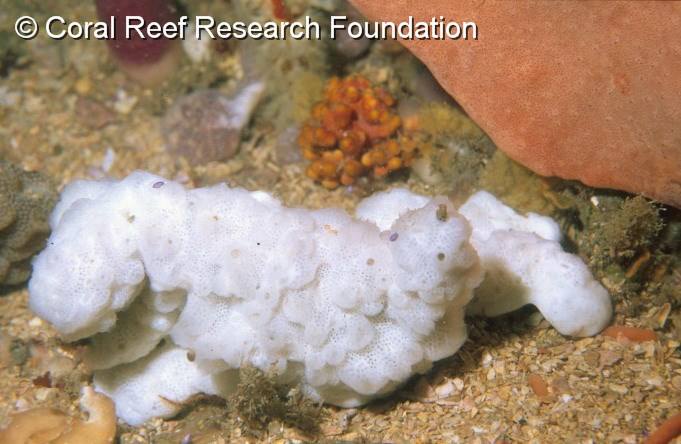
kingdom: Animalia
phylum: Chordata
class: Ascidiacea
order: Aplousobranchia
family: Didemnidae
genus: Trididemnum
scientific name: Trididemnum cerebriforme
